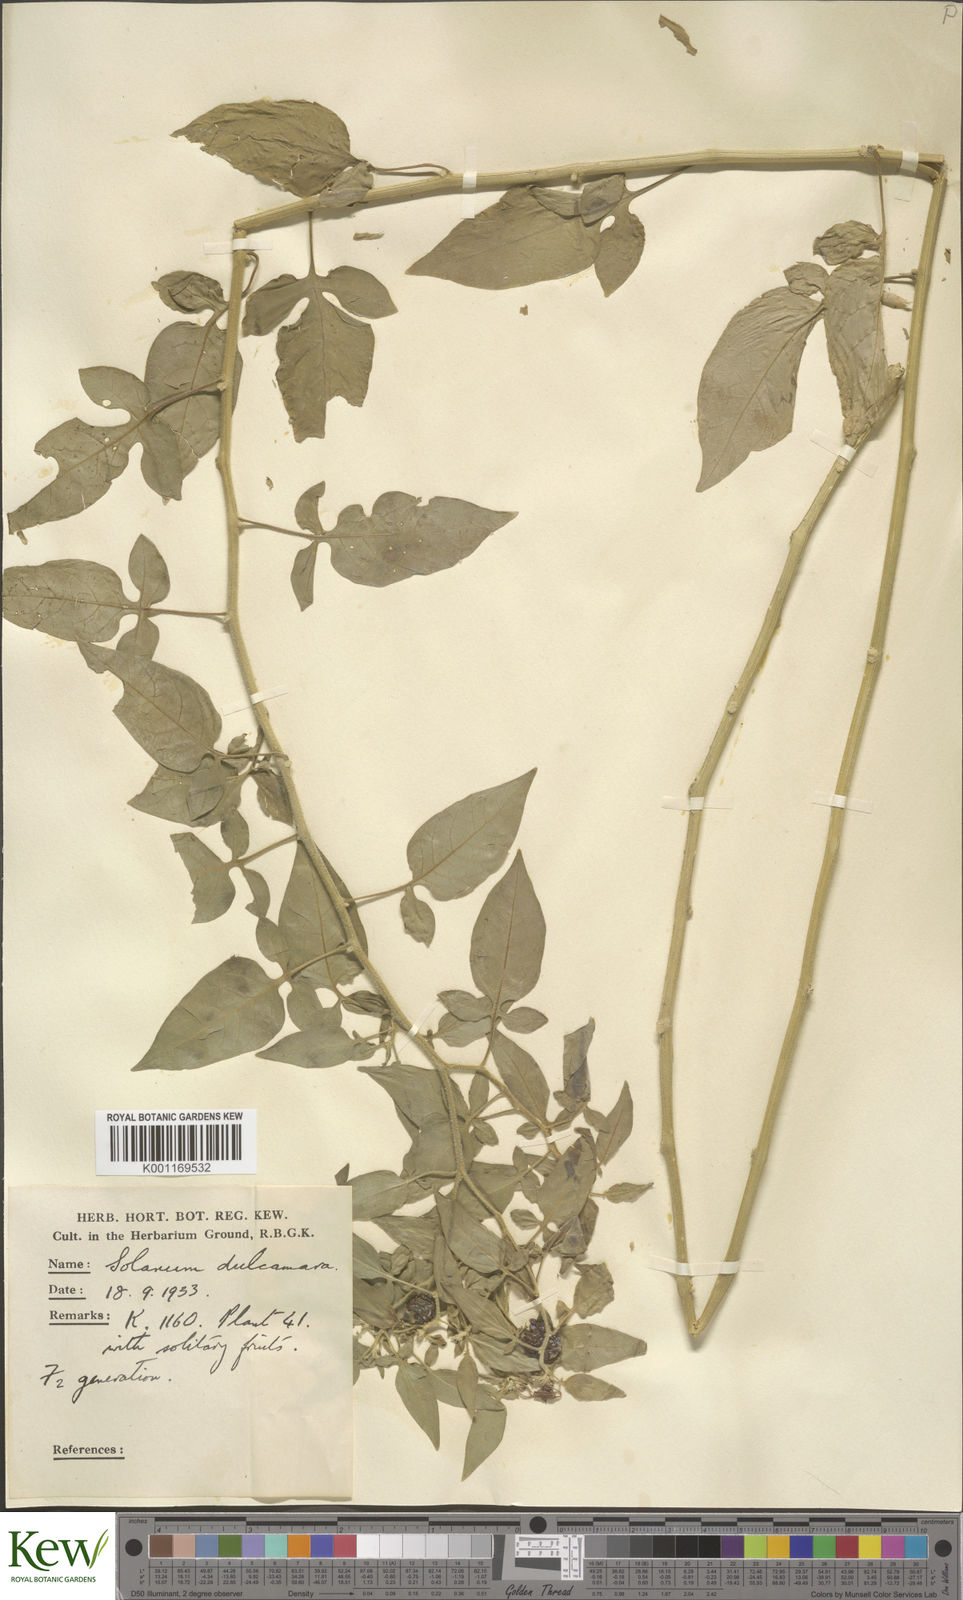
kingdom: Plantae
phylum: Tracheophyta
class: Magnoliopsida
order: Solanales
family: Solanaceae
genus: Solanum
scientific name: Solanum dulcamara
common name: Climbing nightshade
